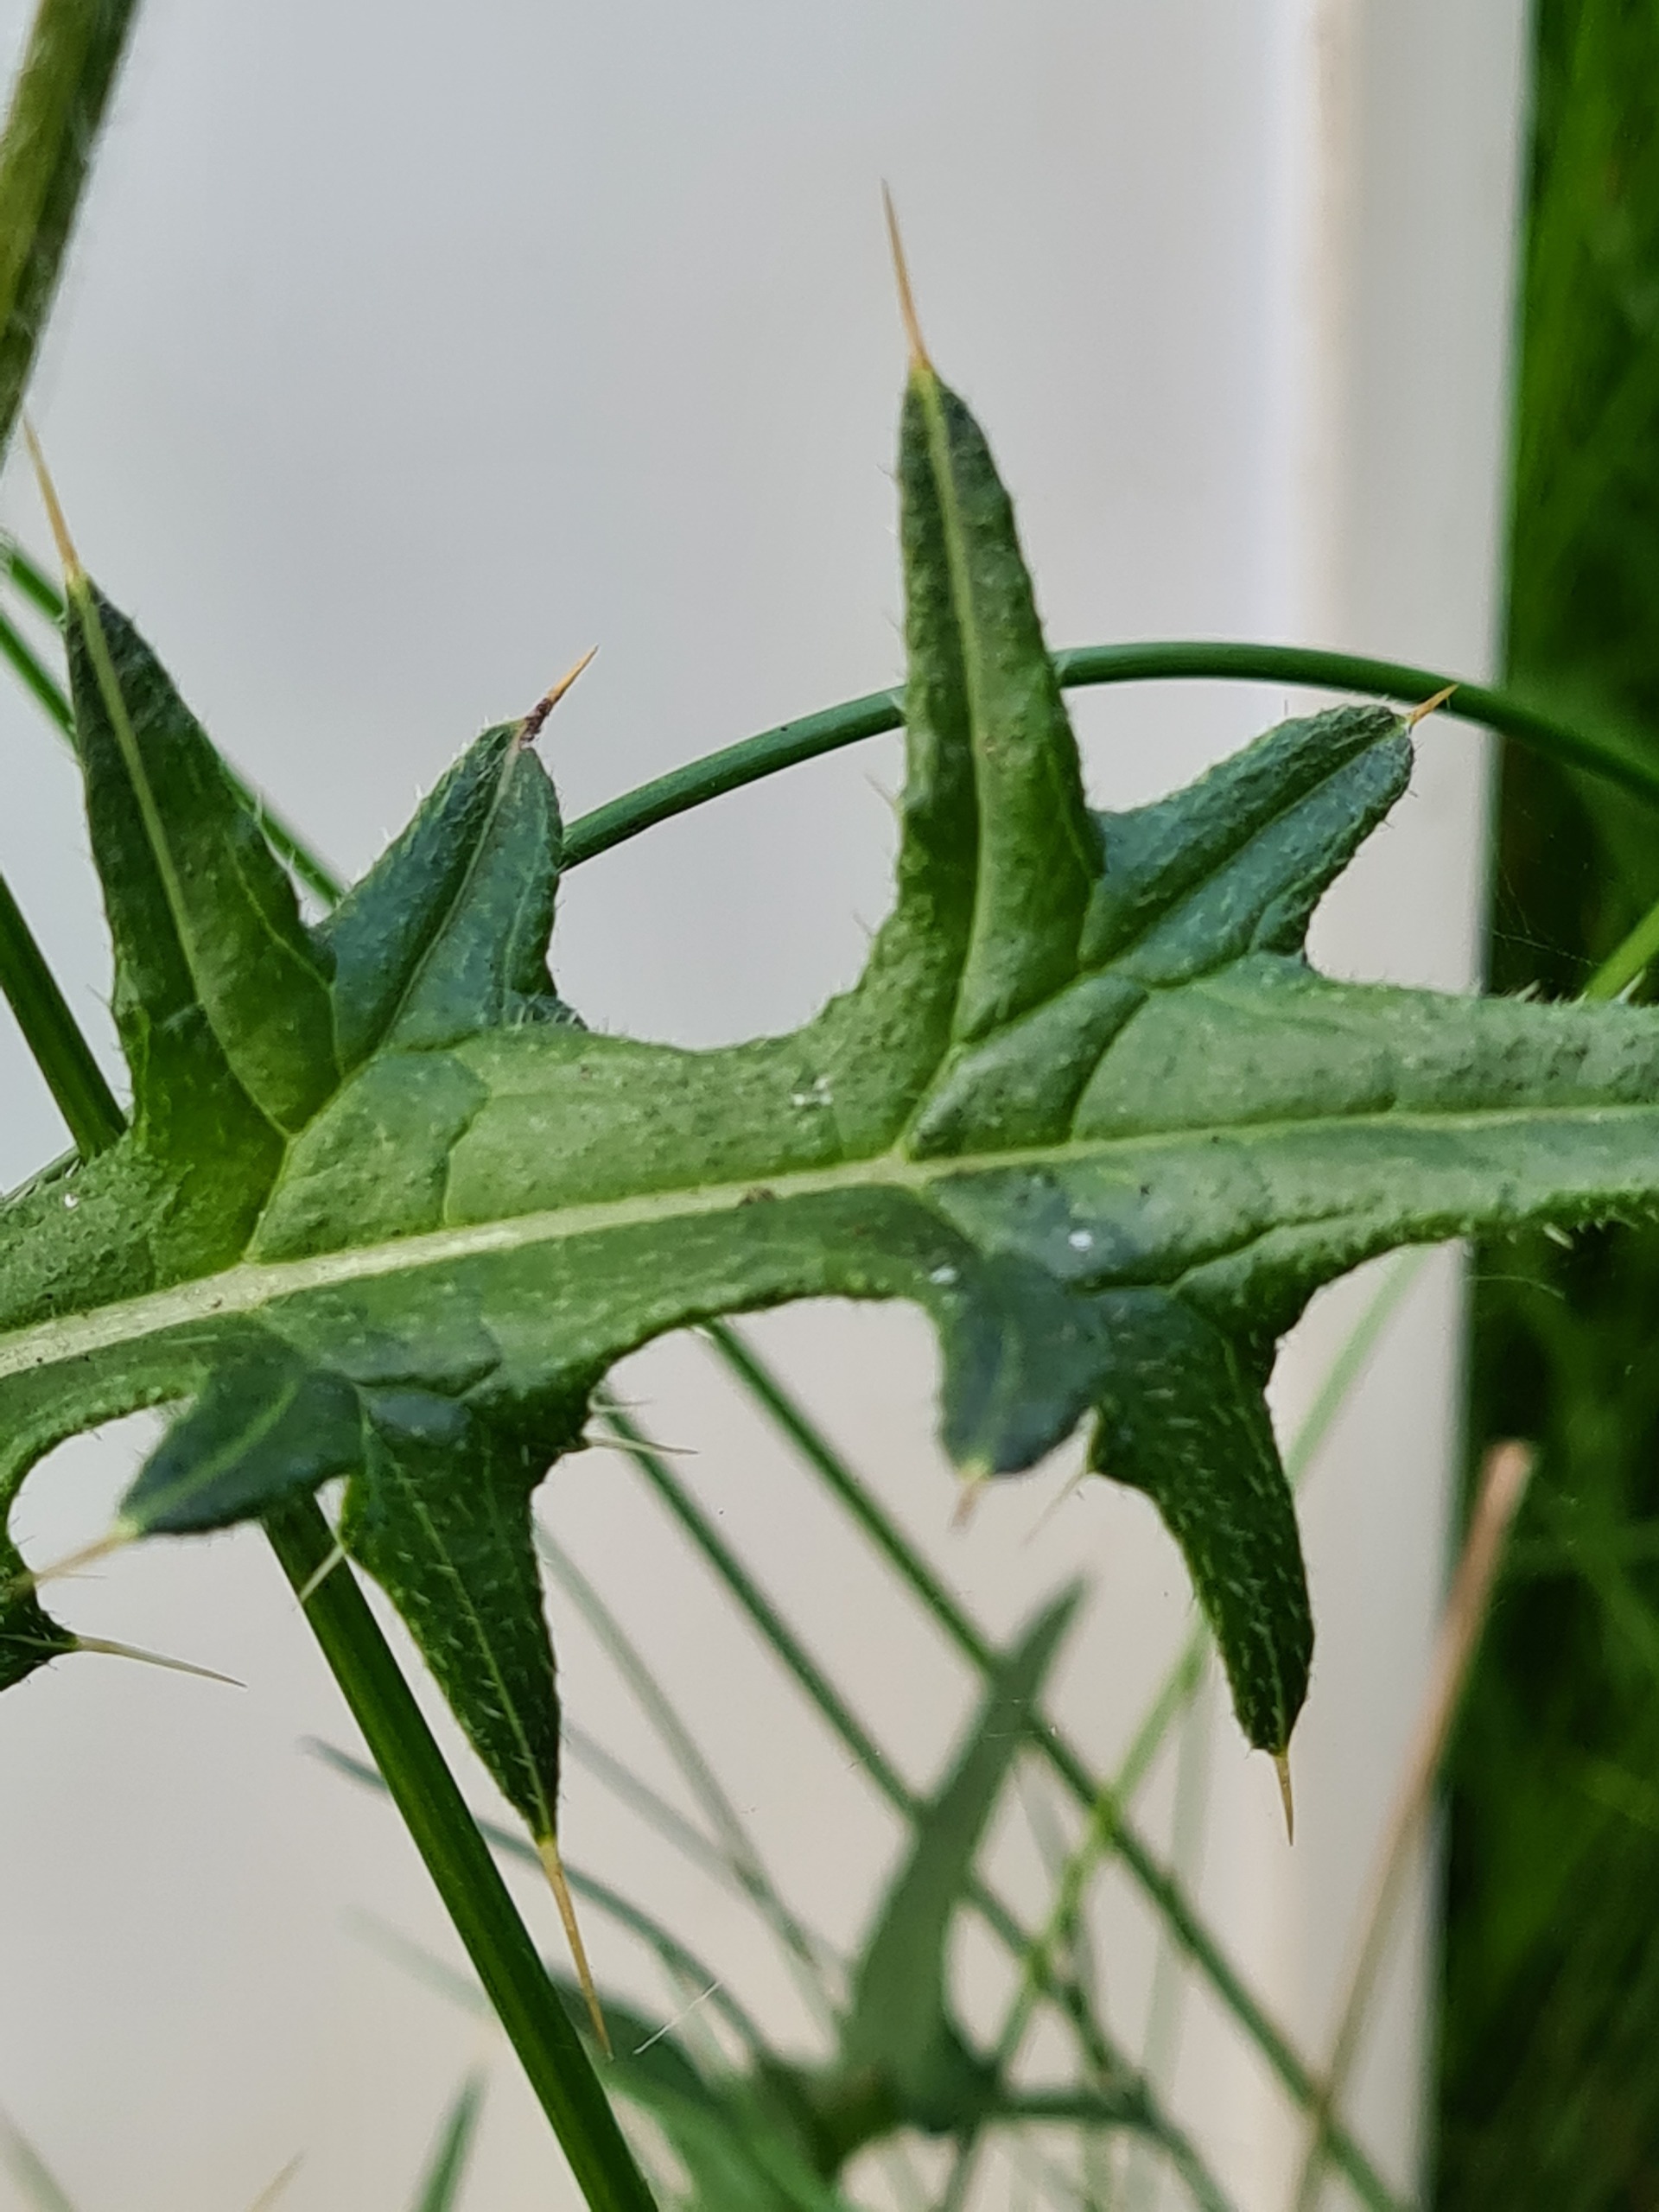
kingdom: Plantae
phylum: Tracheophyta
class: Magnoliopsida
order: Asterales
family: Asteraceae
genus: Cirsium
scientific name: Cirsium vulgare
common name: Horse-tidsel
